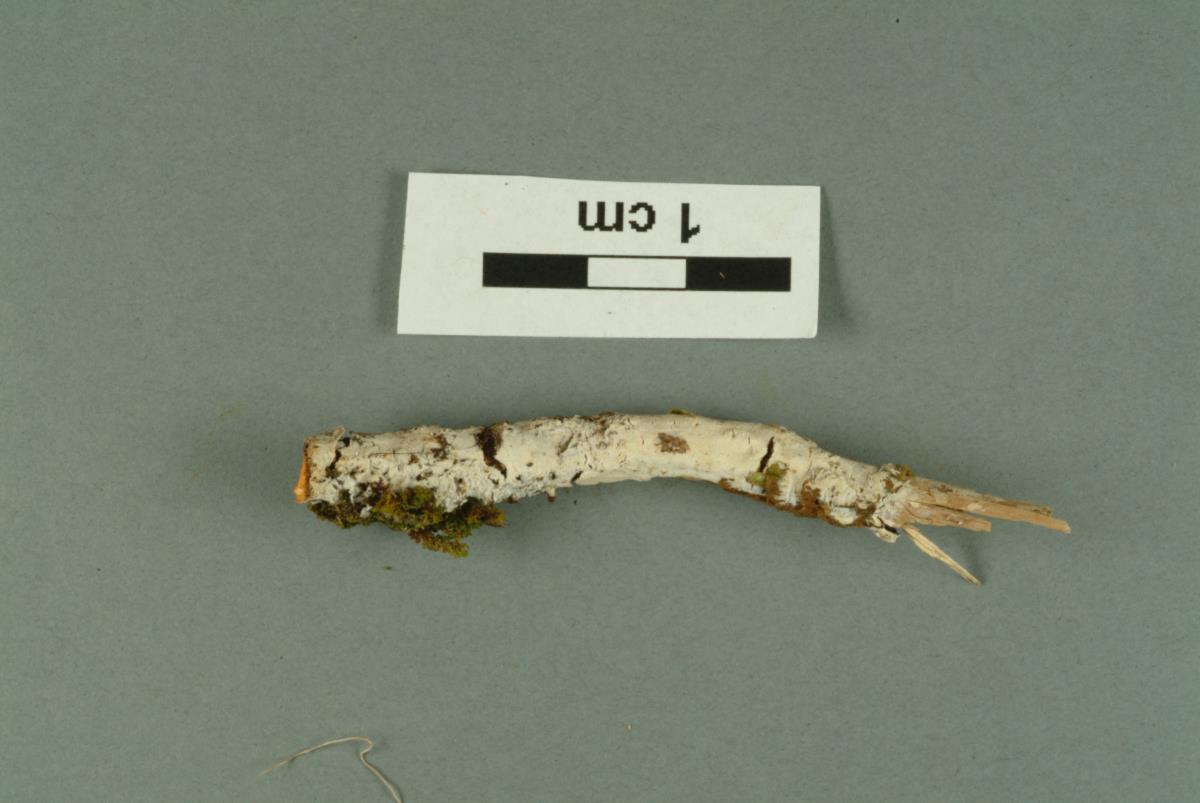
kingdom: Fungi
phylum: Basidiomycota
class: Agaricomycetes
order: Corticiales
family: Corticiaceae
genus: Lyomyces
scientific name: Lyomyces sambuci
